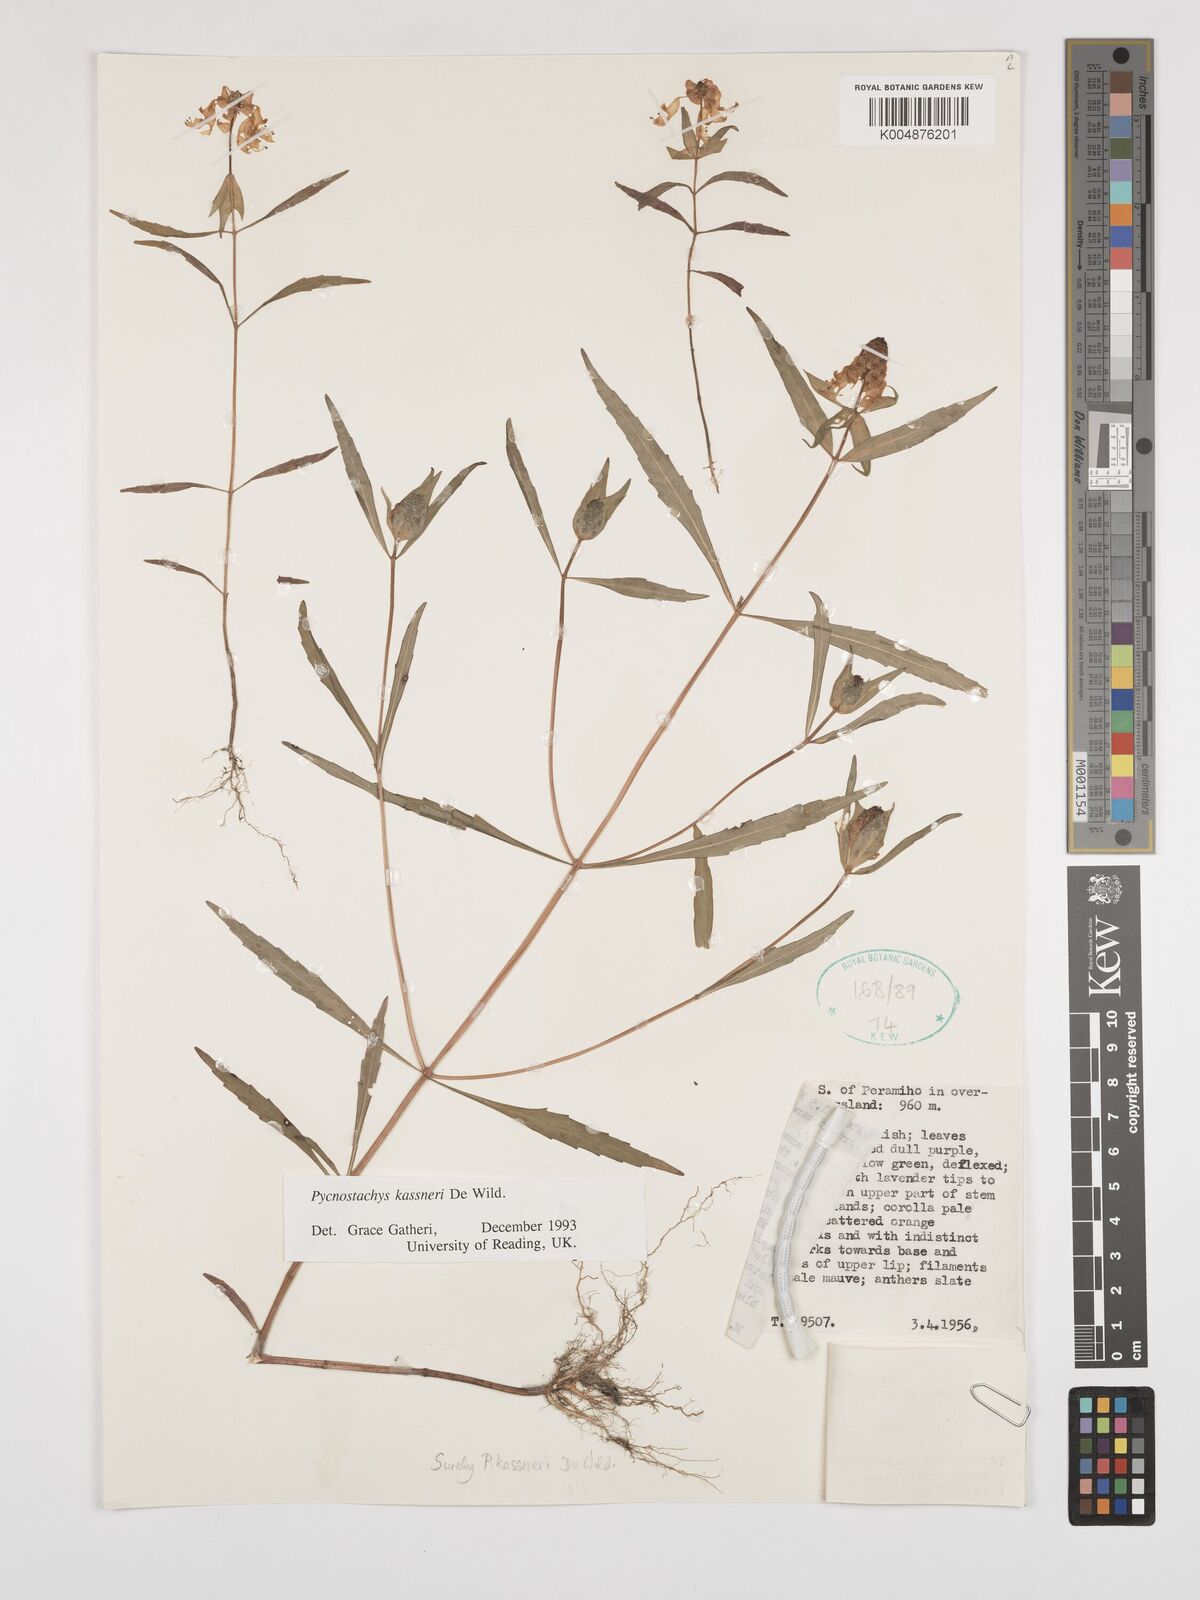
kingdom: Plantae
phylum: Tracheophyta
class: Magnoliopsida
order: Lamiales
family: Lamiaceae
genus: Coleus
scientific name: Coleus scruposus
